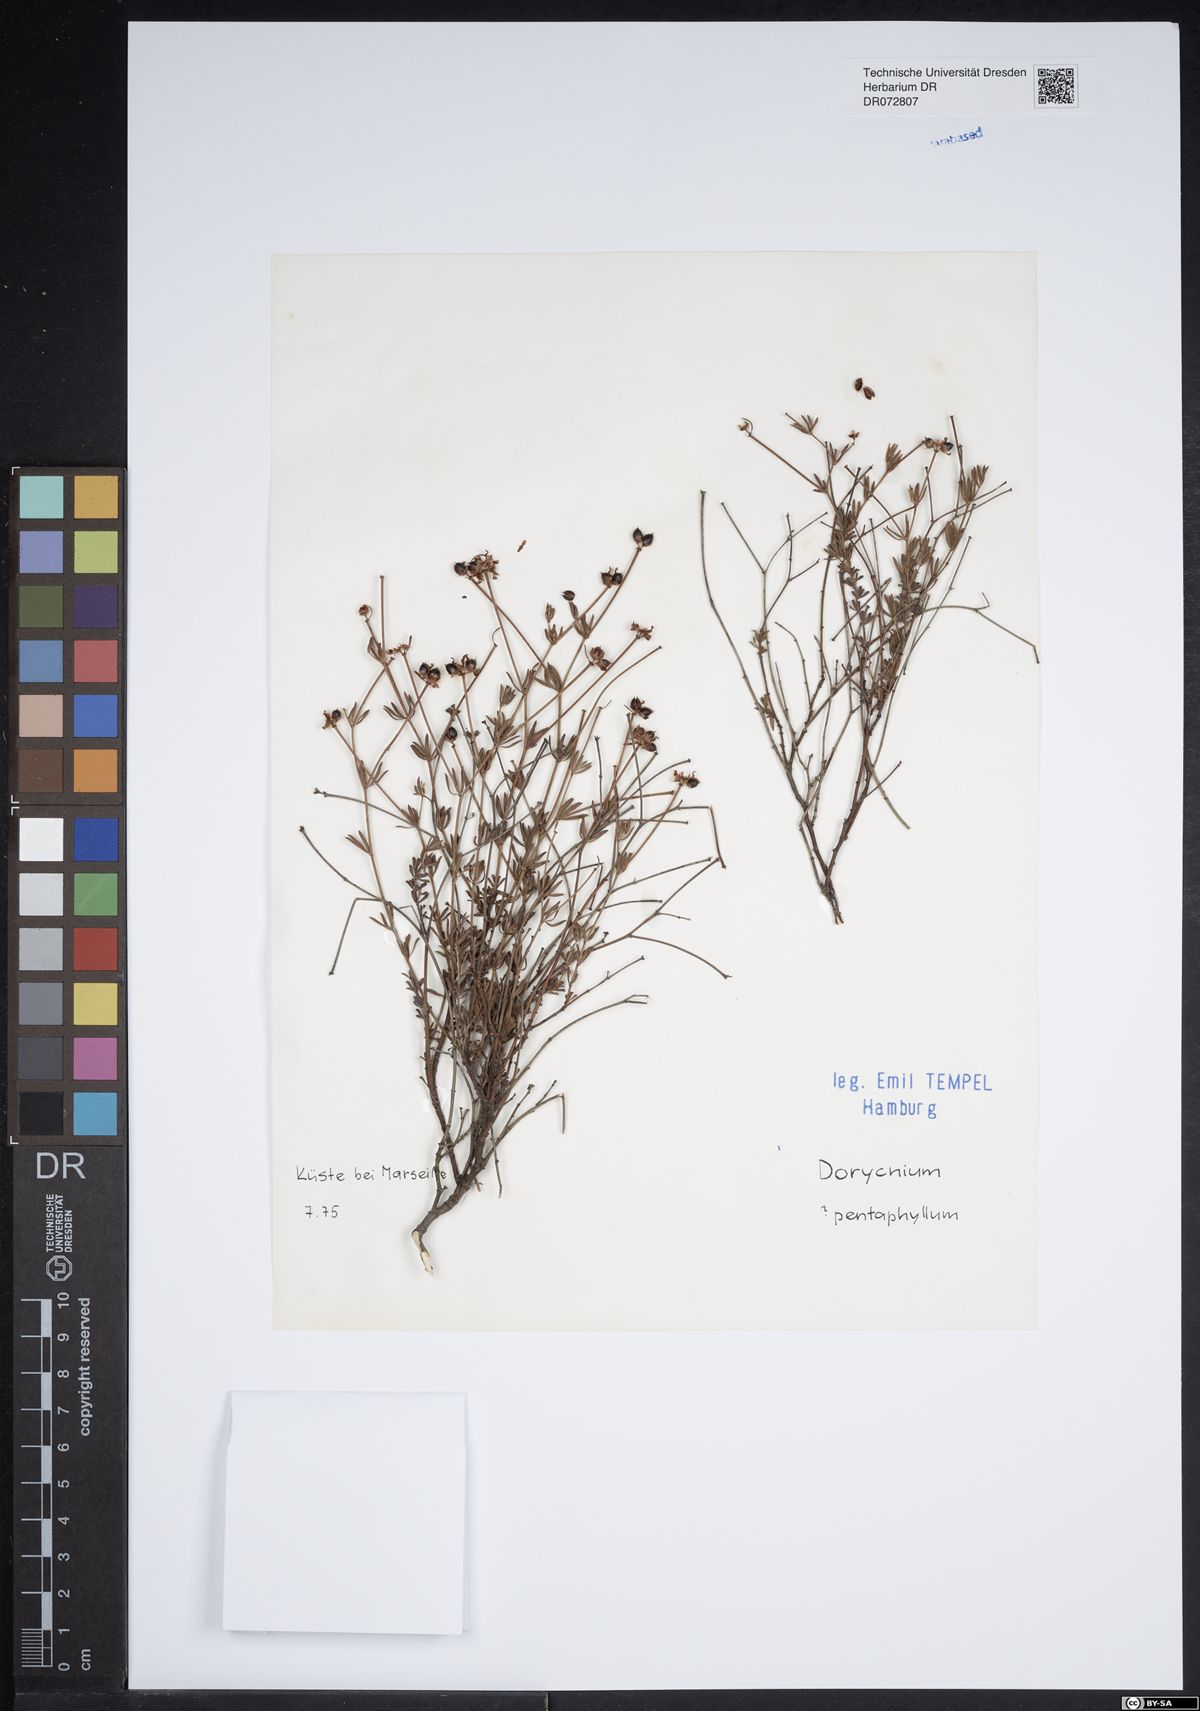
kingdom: Plantae
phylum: Tracheophyta
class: Magnoliopsida
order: Fabales
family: Fabaceae
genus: Lotus
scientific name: Lotus dorycnium
